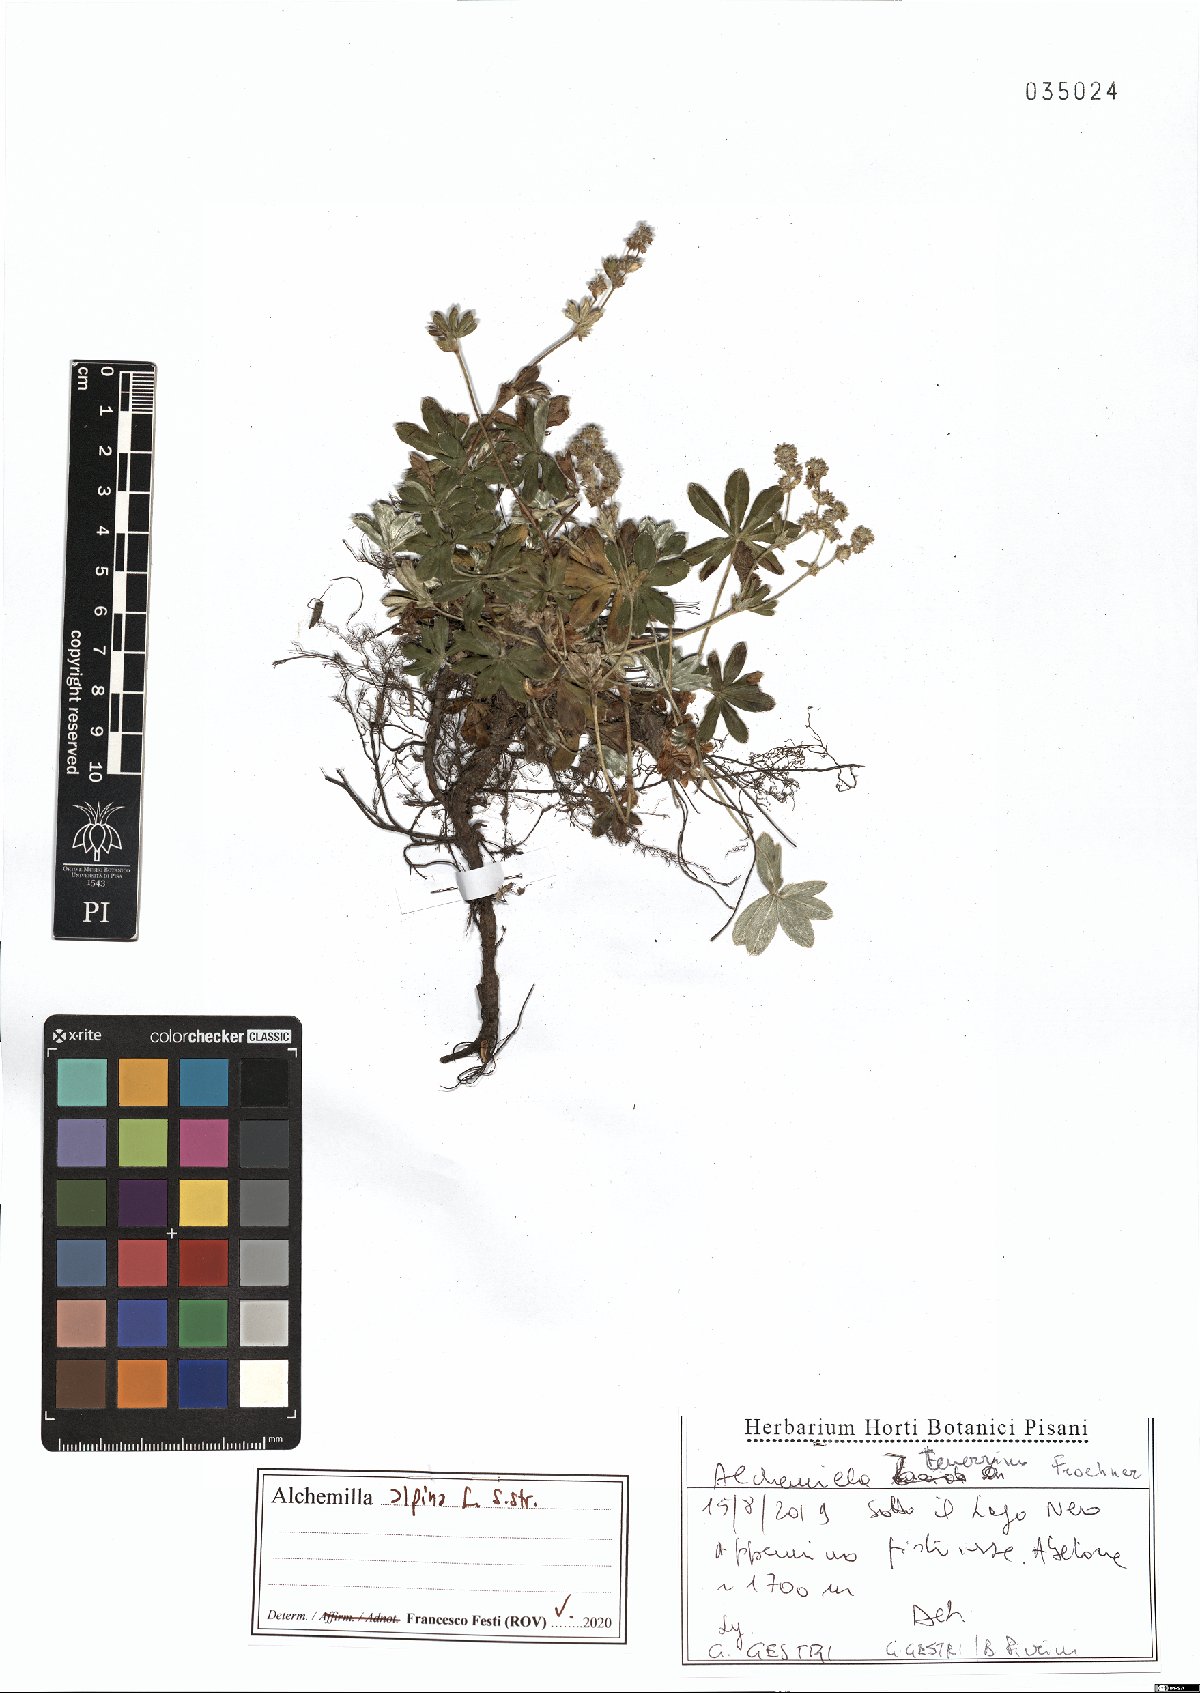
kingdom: Plantae
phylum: Tracheophyta
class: Magnoliopsida
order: Rosales
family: Rosaceae
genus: Alchemilla
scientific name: Alchemilla alpina
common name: Alpine lady's-mantle
